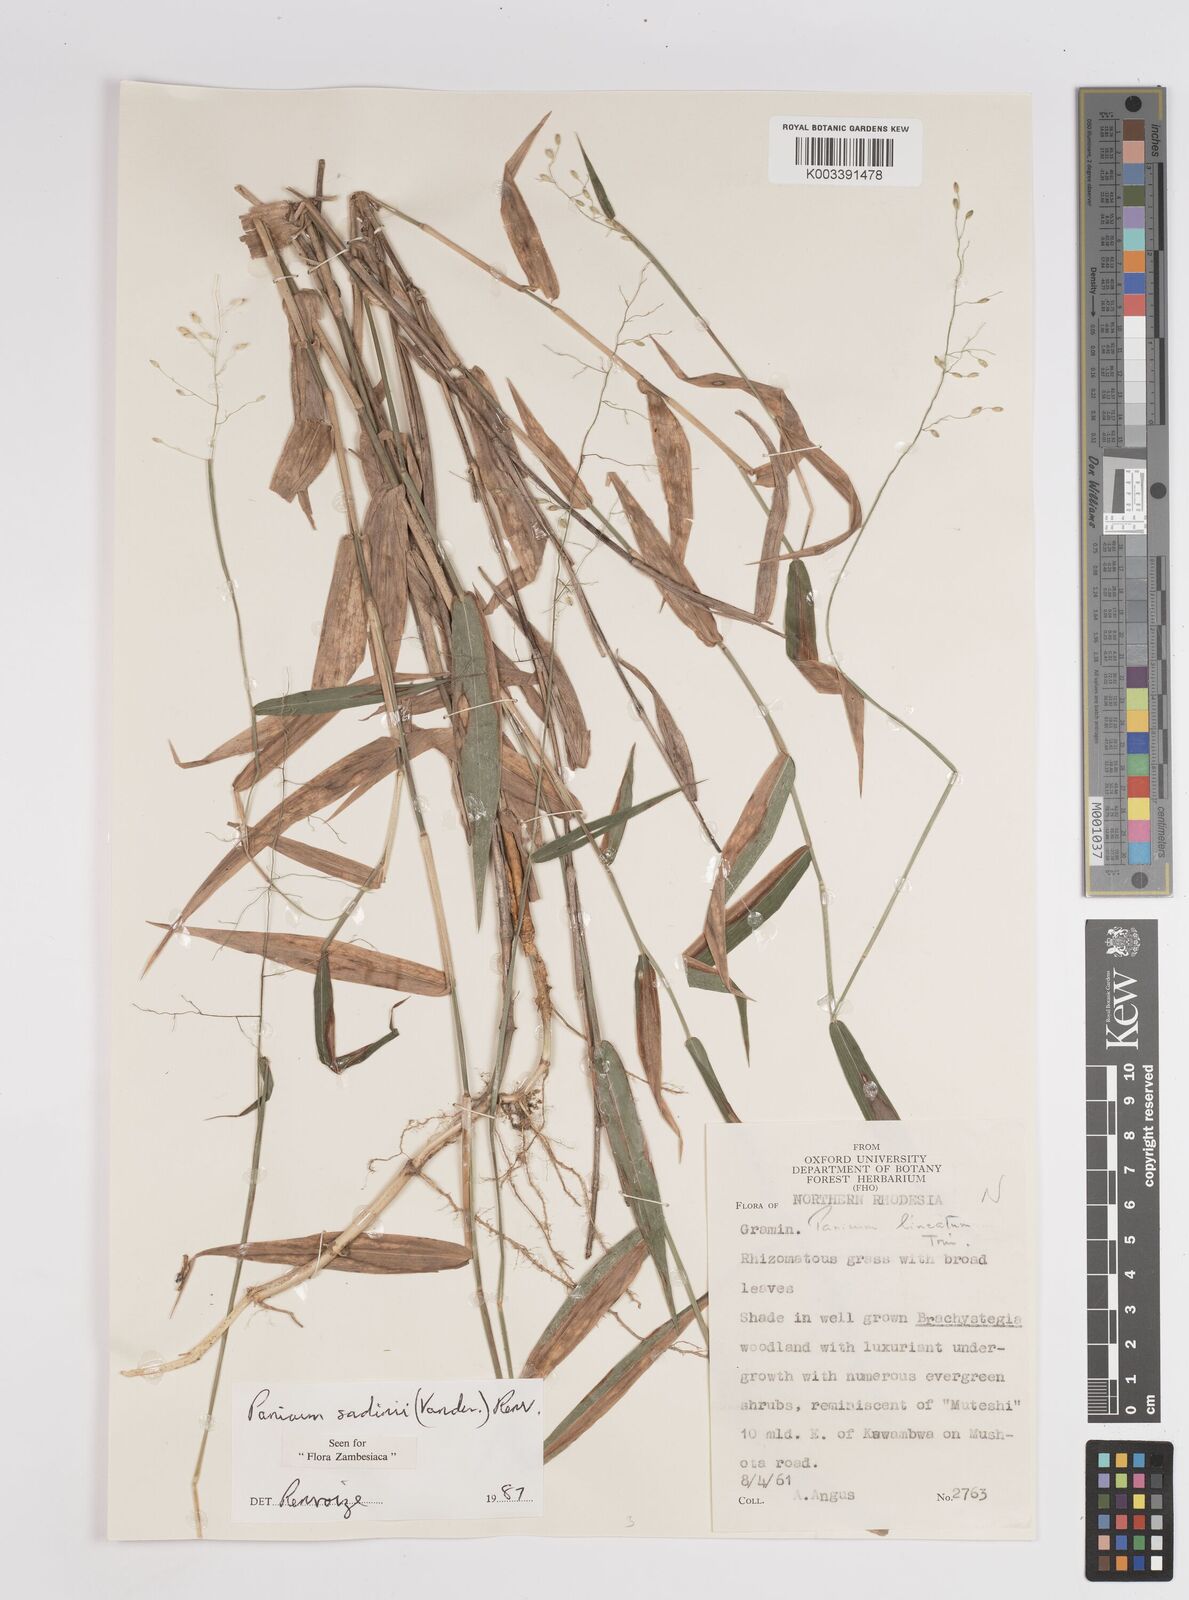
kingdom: Plantae
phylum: Tracheophyta
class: Liliopsida
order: Poales
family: Poaceae
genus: Adenochloa
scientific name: Adenochloa sadinii
